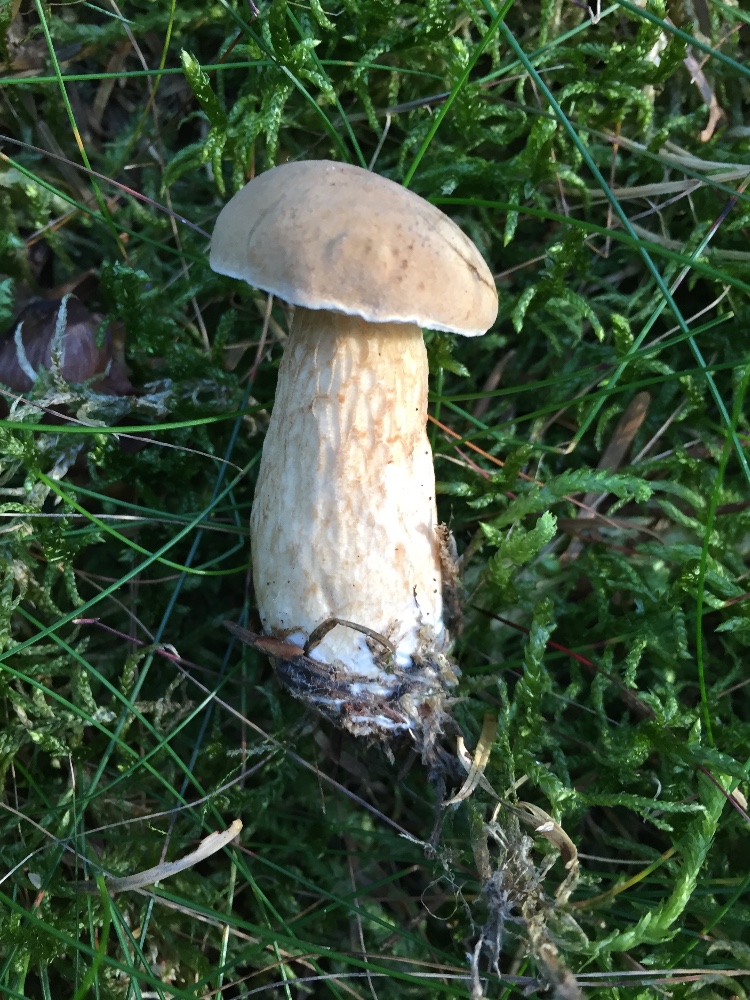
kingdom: Fungi
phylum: Basidiomycota
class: Agaricomycetes
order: Boletales
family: Boletaceae
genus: Tylopilus
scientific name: Tylopilus felleus
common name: galderørhat
